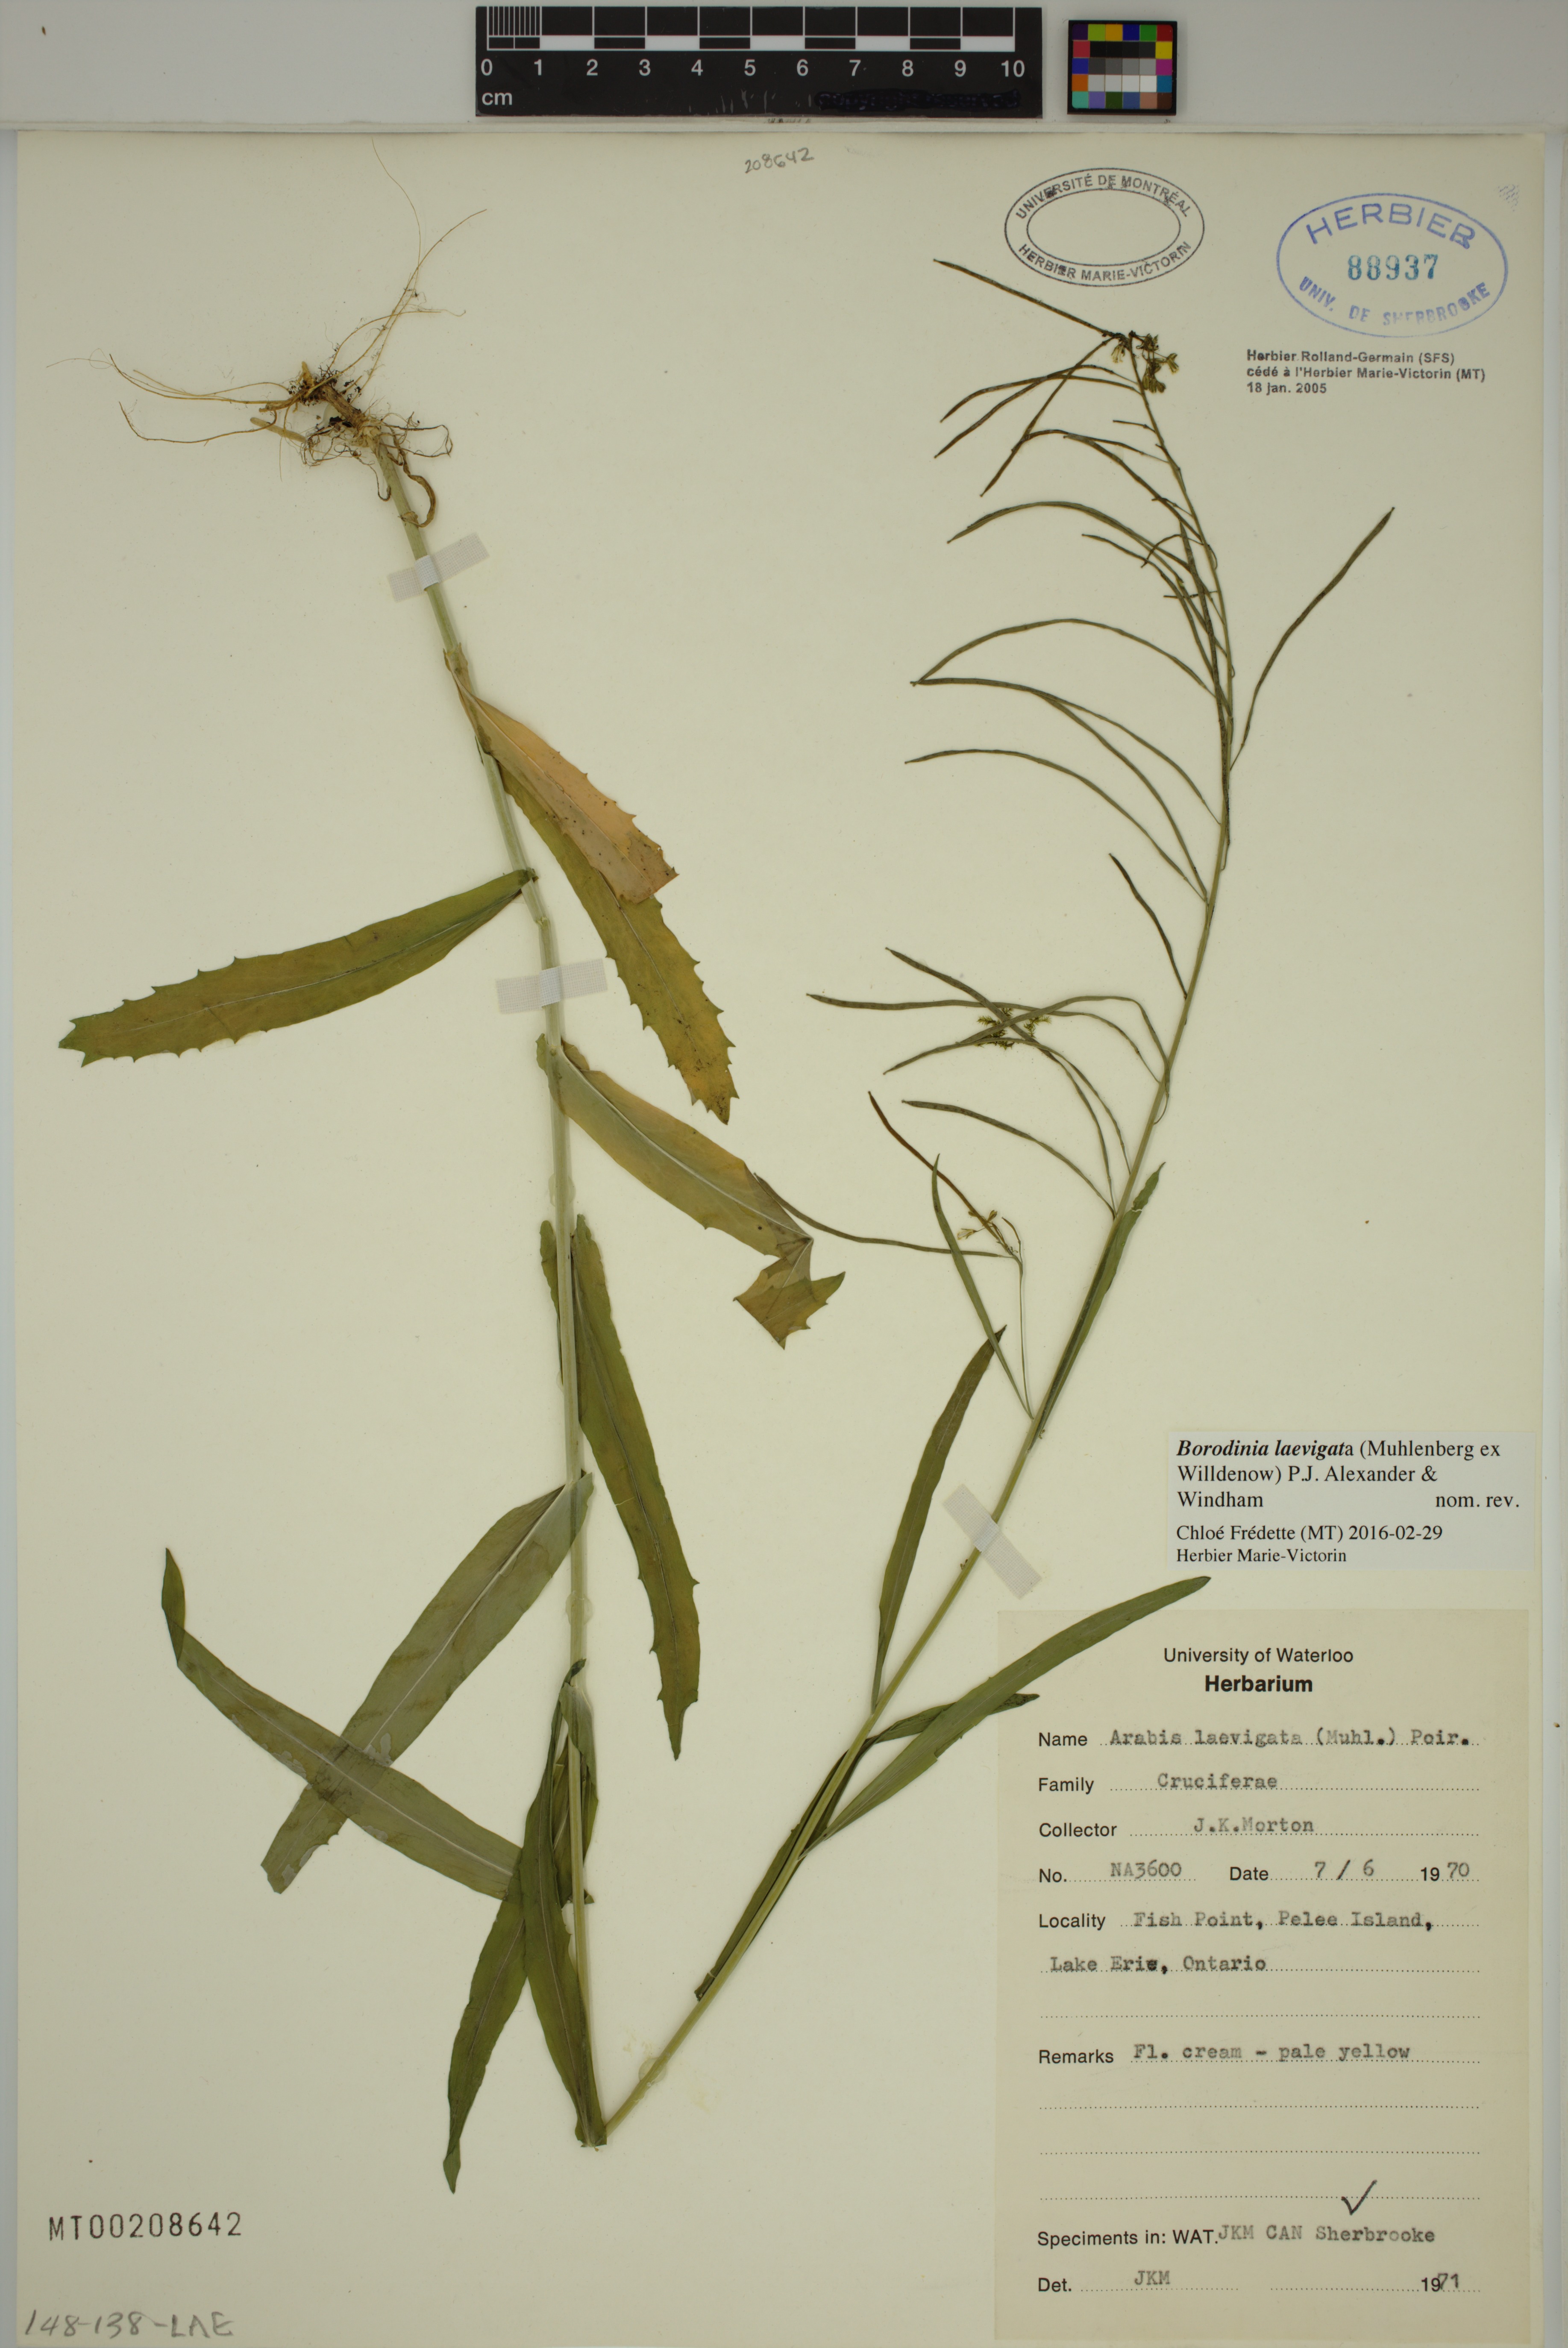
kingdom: Plantae
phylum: Tracheophyta
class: Magnoliopsida
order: Brassicales
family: Brassicaceae
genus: Borodinia
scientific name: Borodinia laevigata
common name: Smooth rockcress
